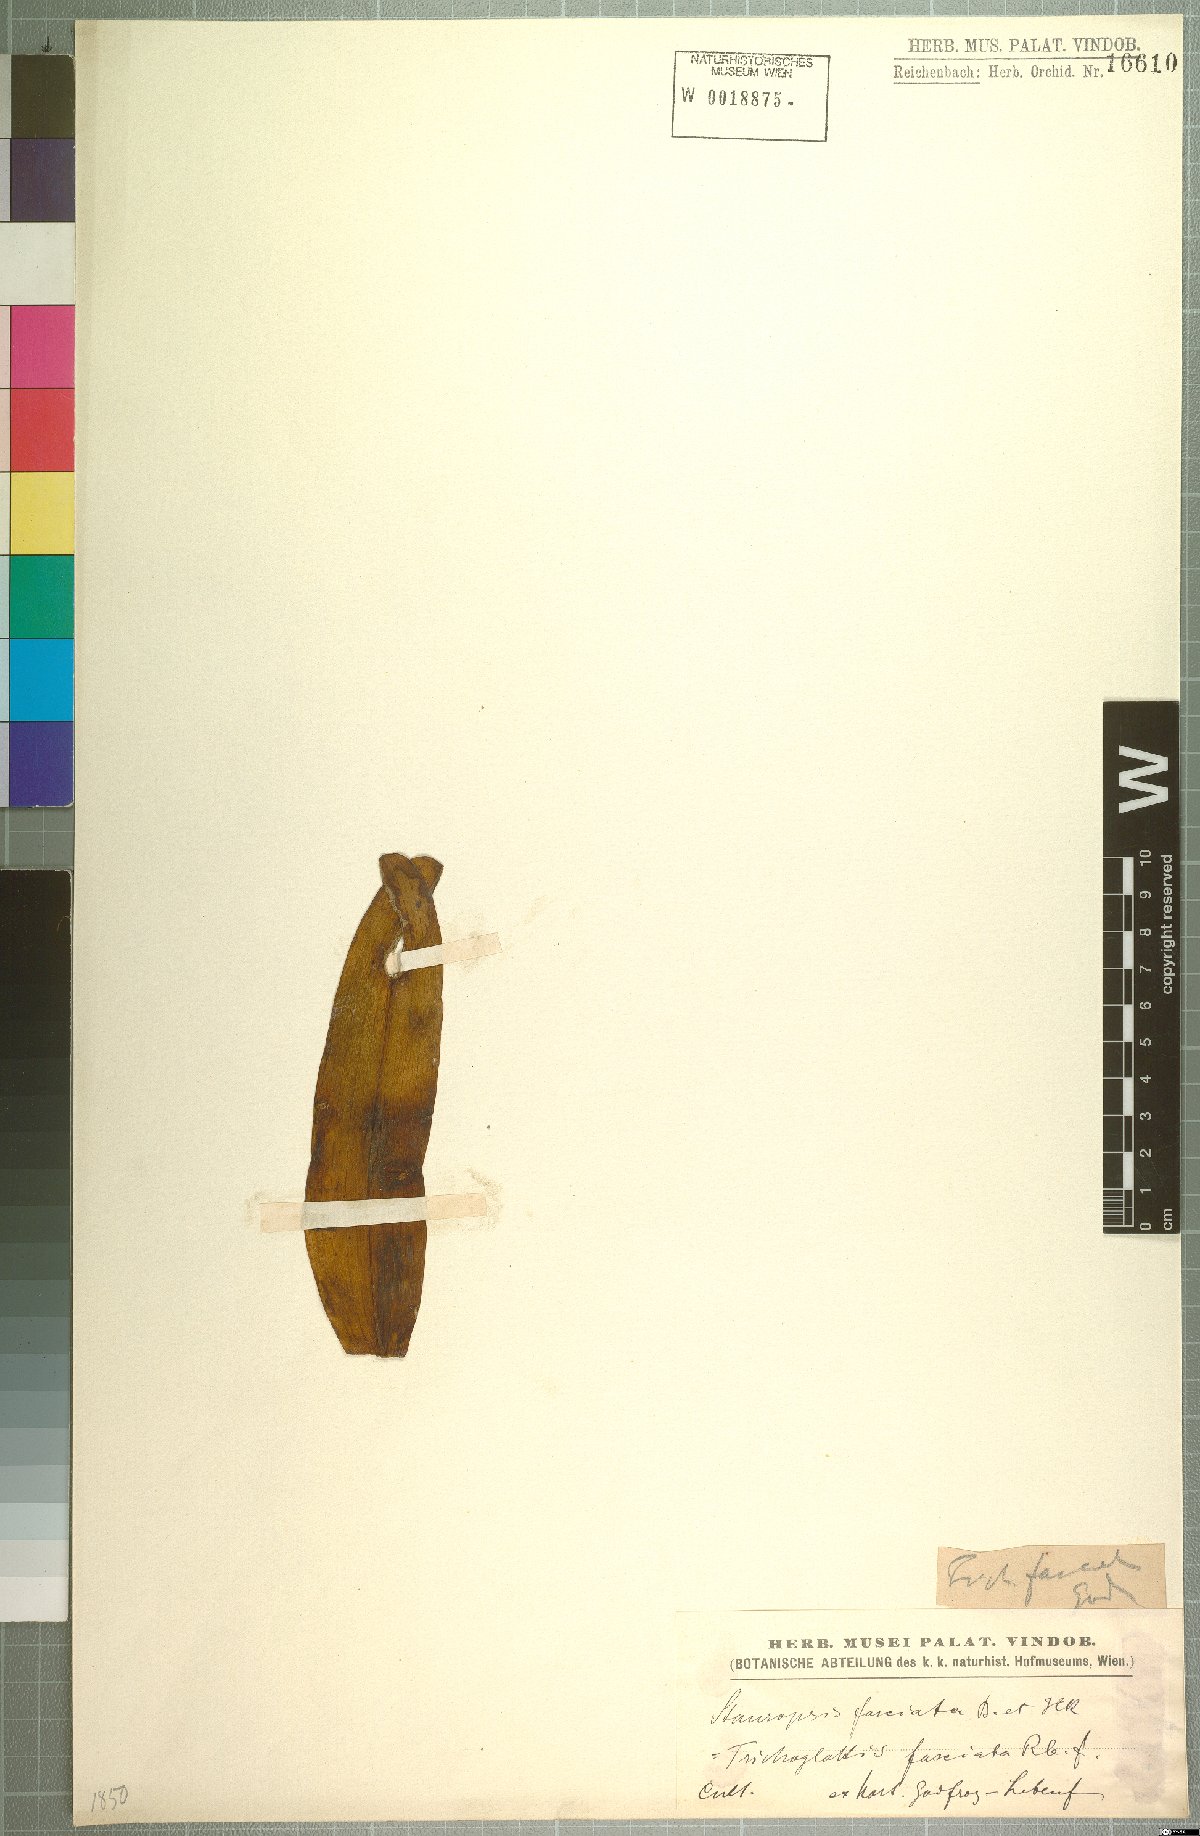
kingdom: Plantae
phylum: Tracheophyta
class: Liliopsida
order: Asparagales
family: Orchidaceae
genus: Trichoglottis
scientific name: Trichoglottis fasciata
